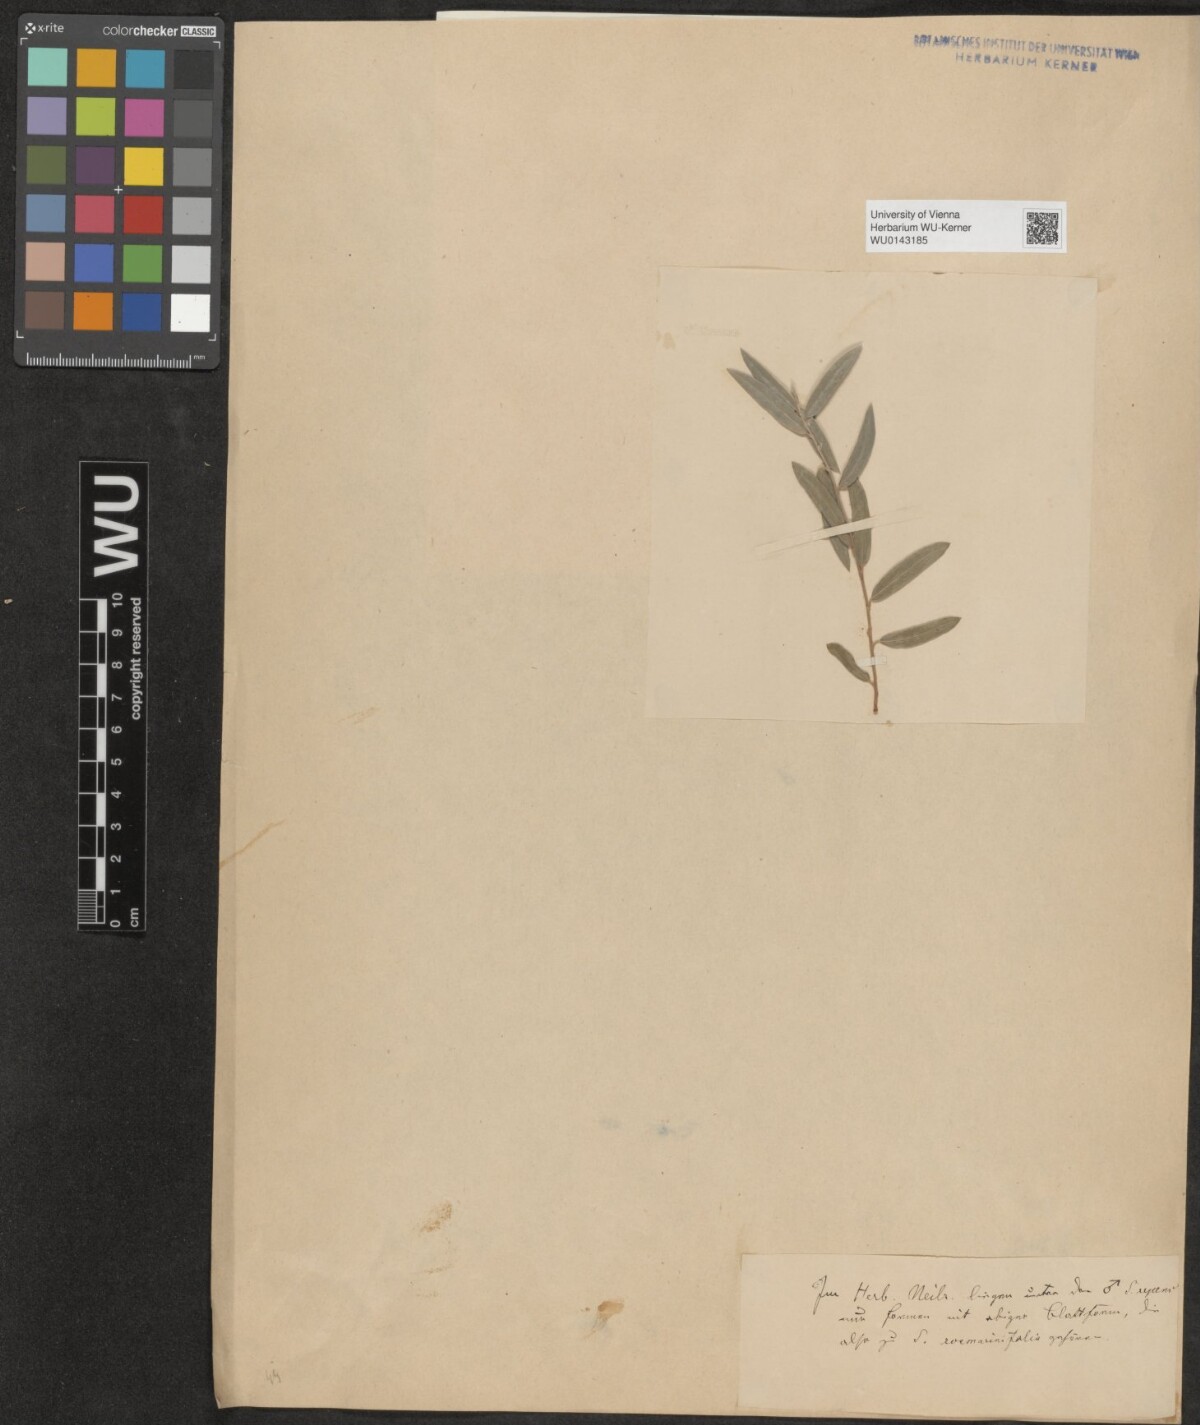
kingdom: Plantae
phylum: Tracheophyta
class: Magnoliopsida
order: Malpighiales
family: Salicaceae
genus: Salix
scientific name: Salix repens
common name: Creeping willow
